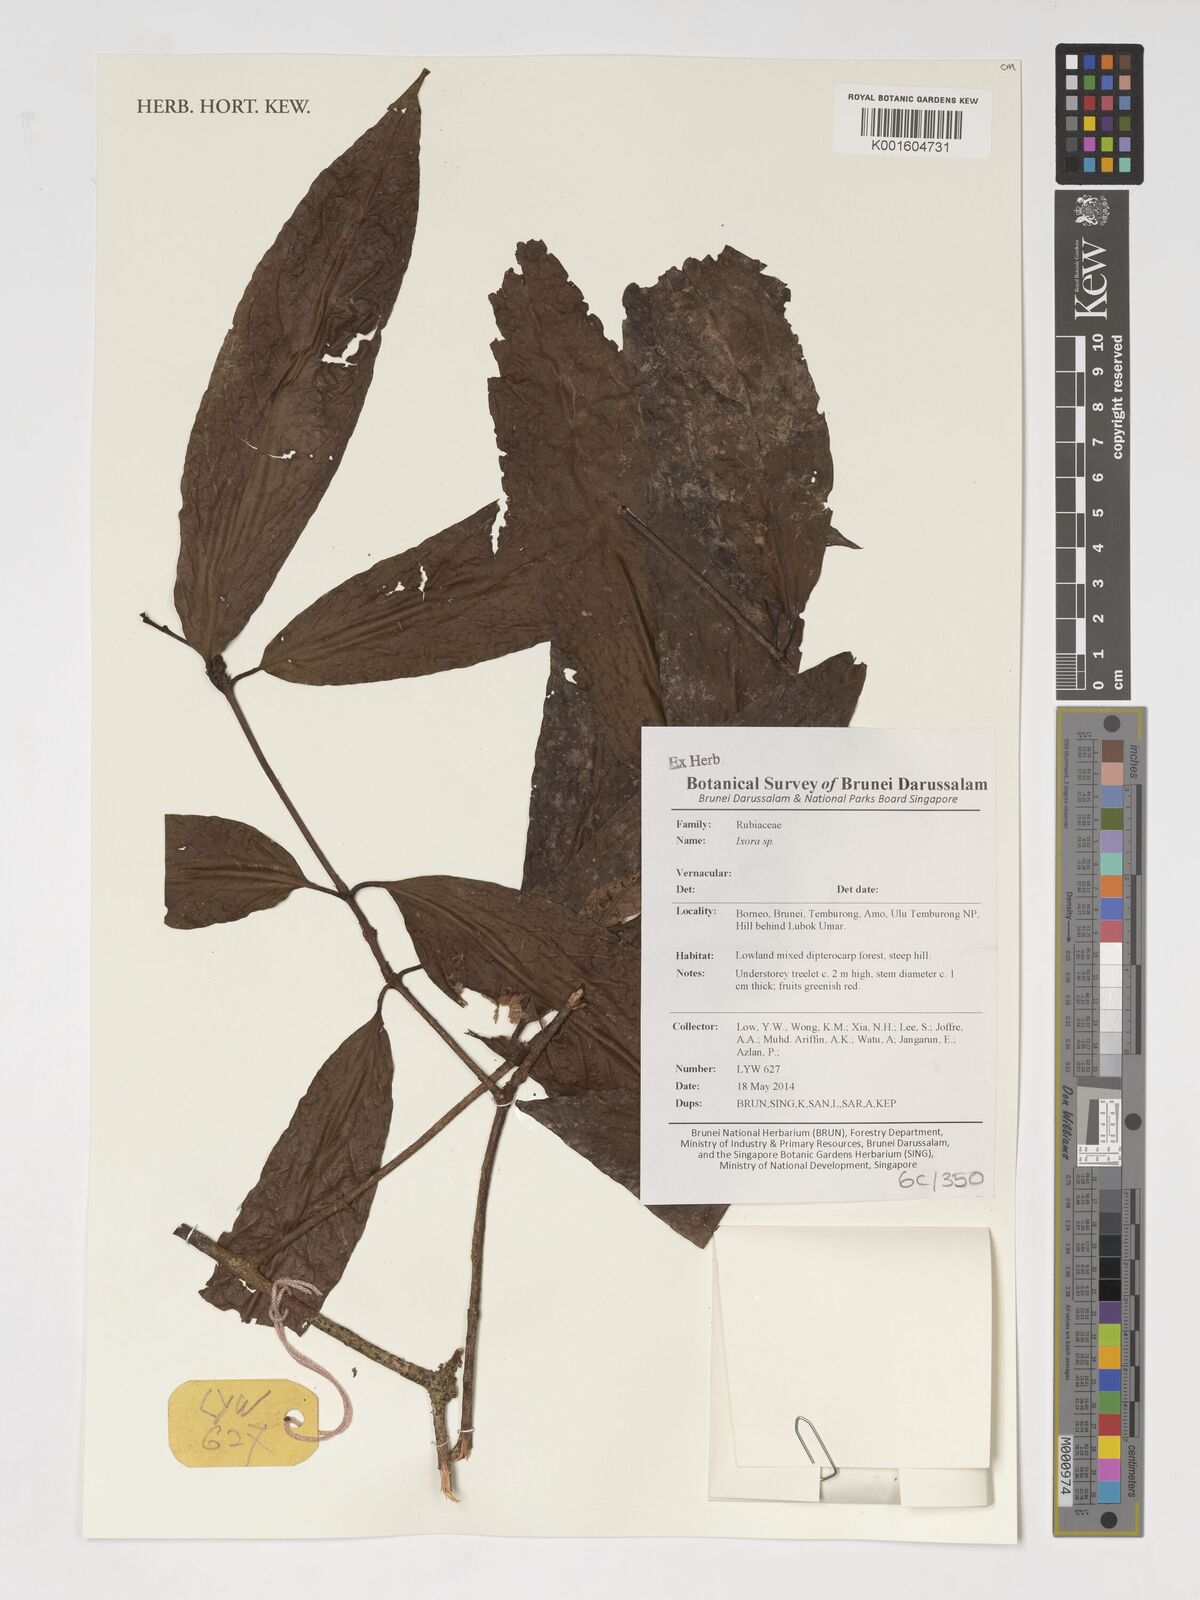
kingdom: Plantae
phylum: Tracheophyta
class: Magnoliopsida
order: Gentianales
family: Rubiaceae
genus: Ixora
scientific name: Ixora
